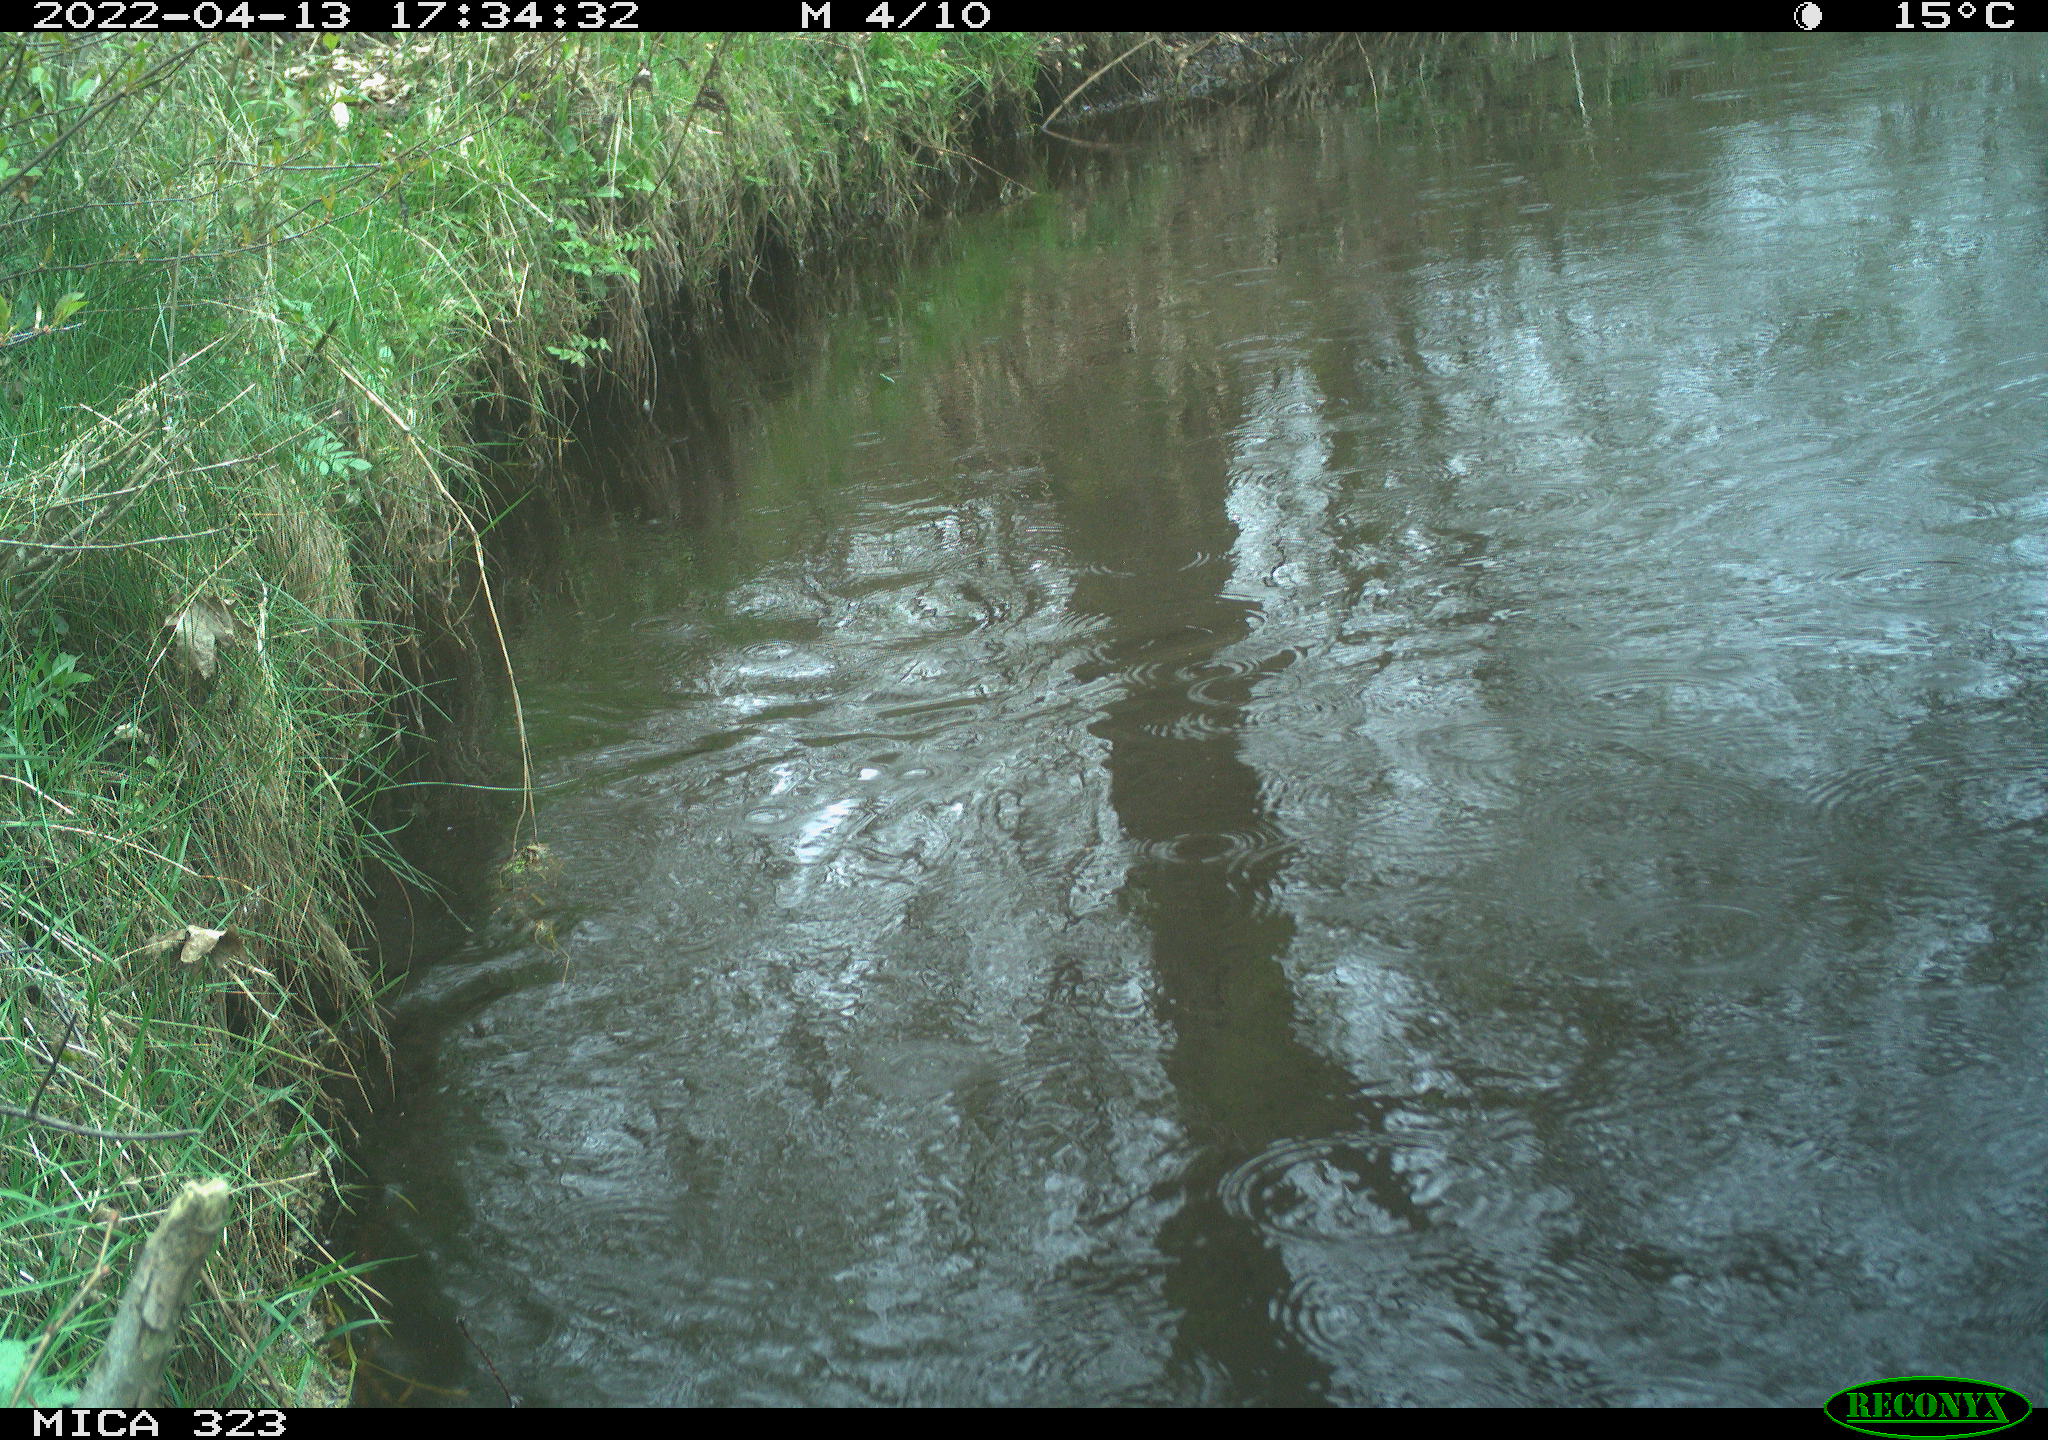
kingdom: Animalia
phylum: Chordata
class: Aves
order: Gruiformes
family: Rallidae
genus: Gallinula
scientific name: Gallinula chloropus
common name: Common moorhen
